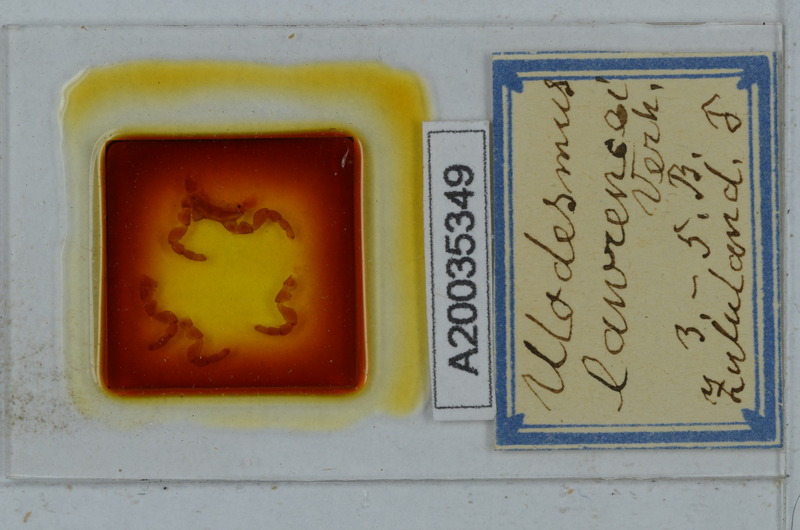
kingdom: Animalia
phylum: Arthropoda
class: Diplopoda
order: Polydesmida
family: Gomphodesmidae
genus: Ulodesmus
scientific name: Ulodesmus lawrencei
